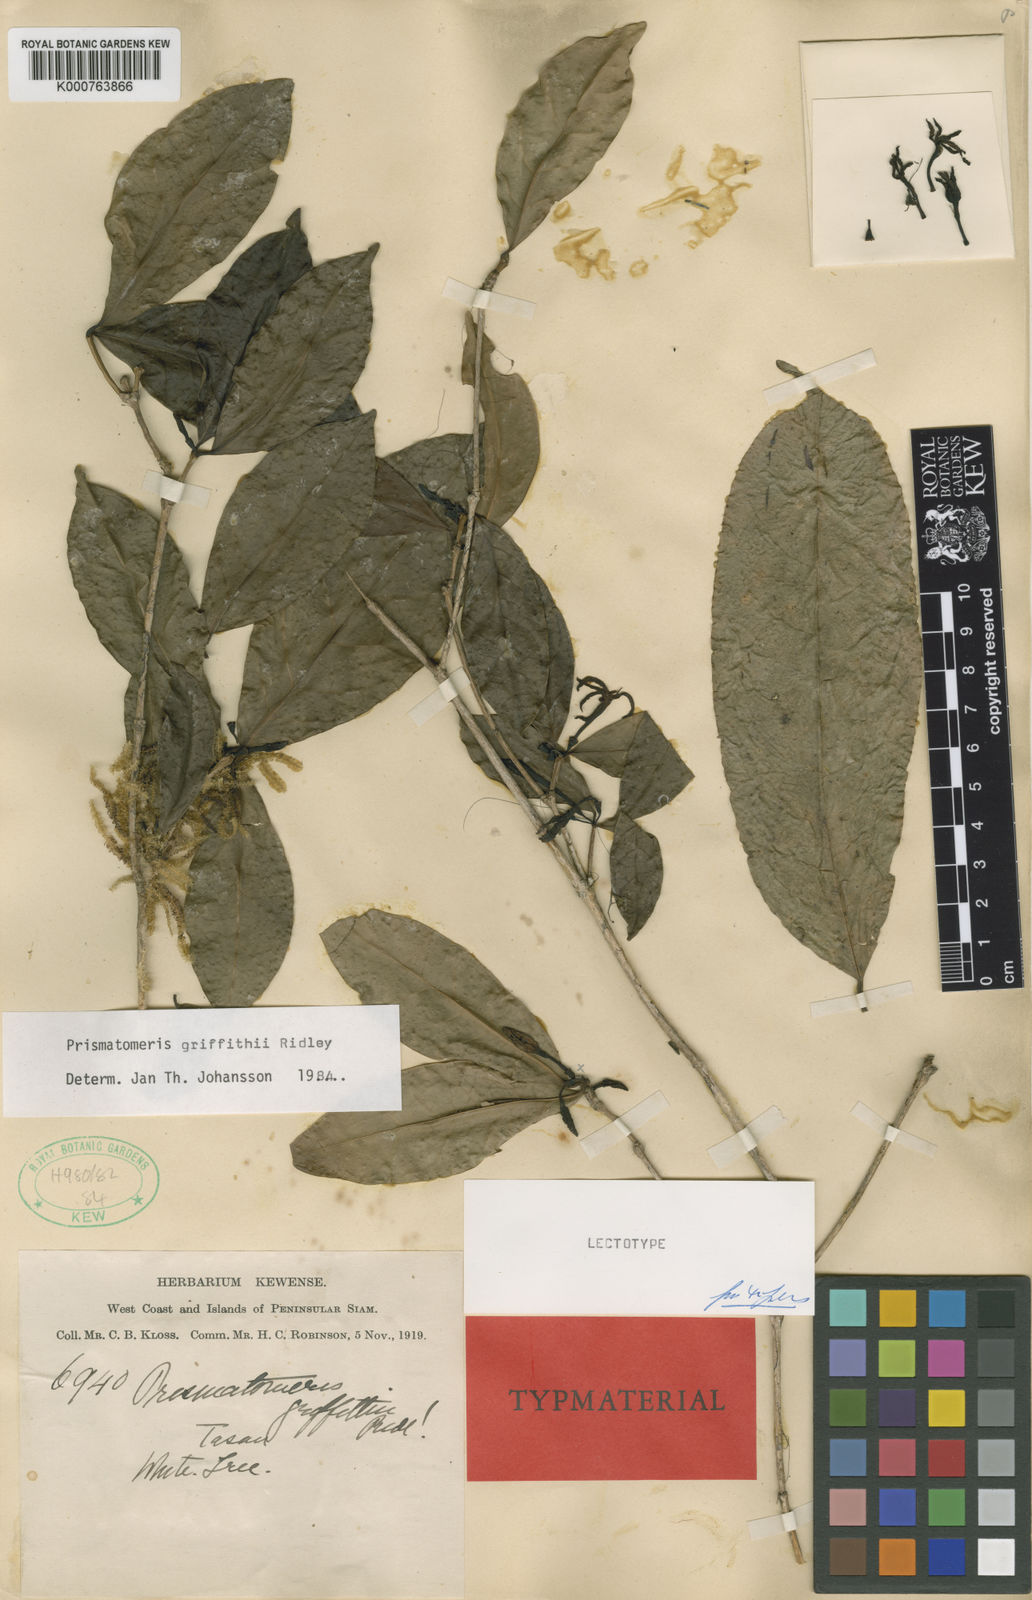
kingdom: Plantae
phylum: Tracheophyta
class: Magnoliopsida
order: Gentianales
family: Rubiaceae
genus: Prismatomeris
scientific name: Prismatomeris griffithii
